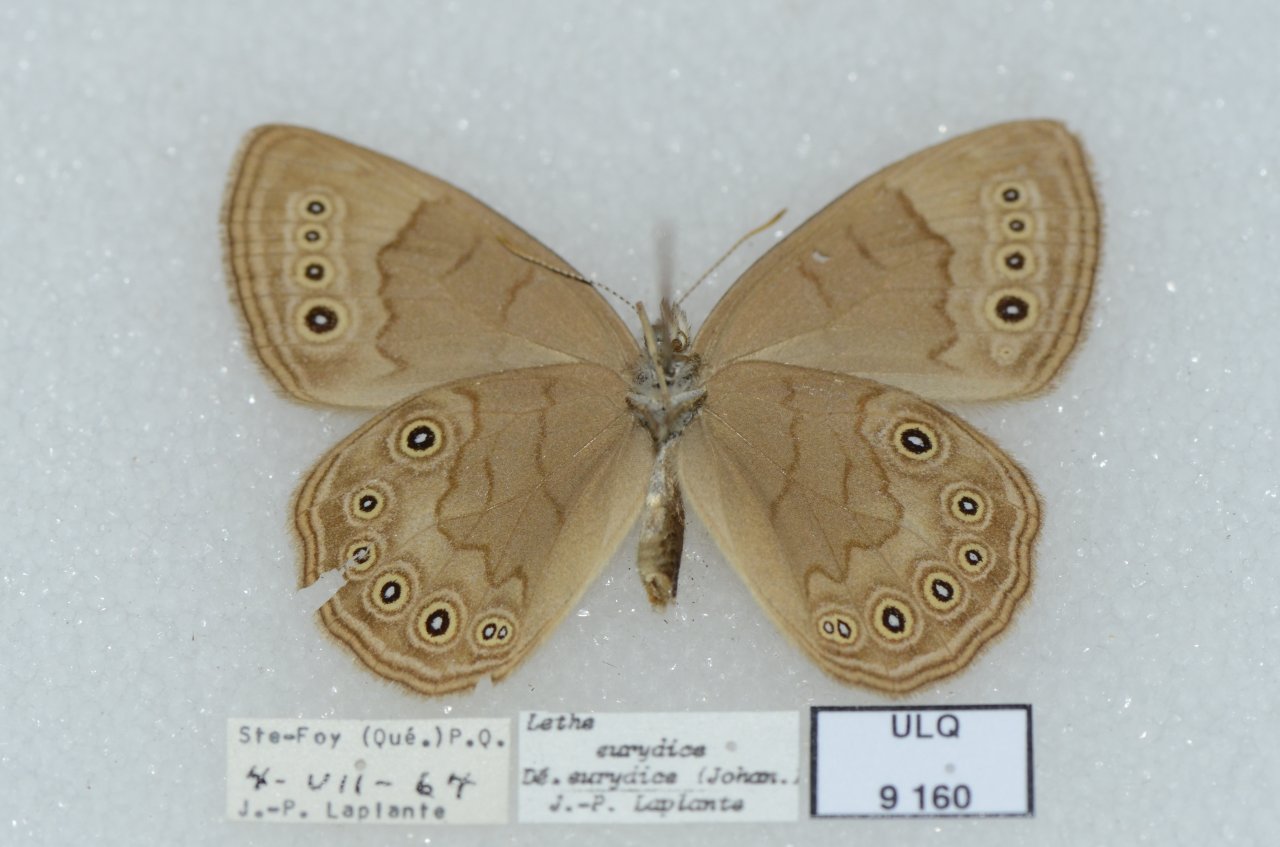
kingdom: Animalia
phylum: Arthropoda
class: Insecta
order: Lepidoptera
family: Nymphalidae
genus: Lethe
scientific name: Lethe eurydice
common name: Eyed Brown
